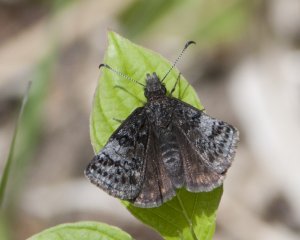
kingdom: Animalia
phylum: Arthropoda
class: Insecta
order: Lepidoptera
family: Hesperiidae
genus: Erynnis
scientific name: Erynnis icelus
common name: Dreamy Duskywing
